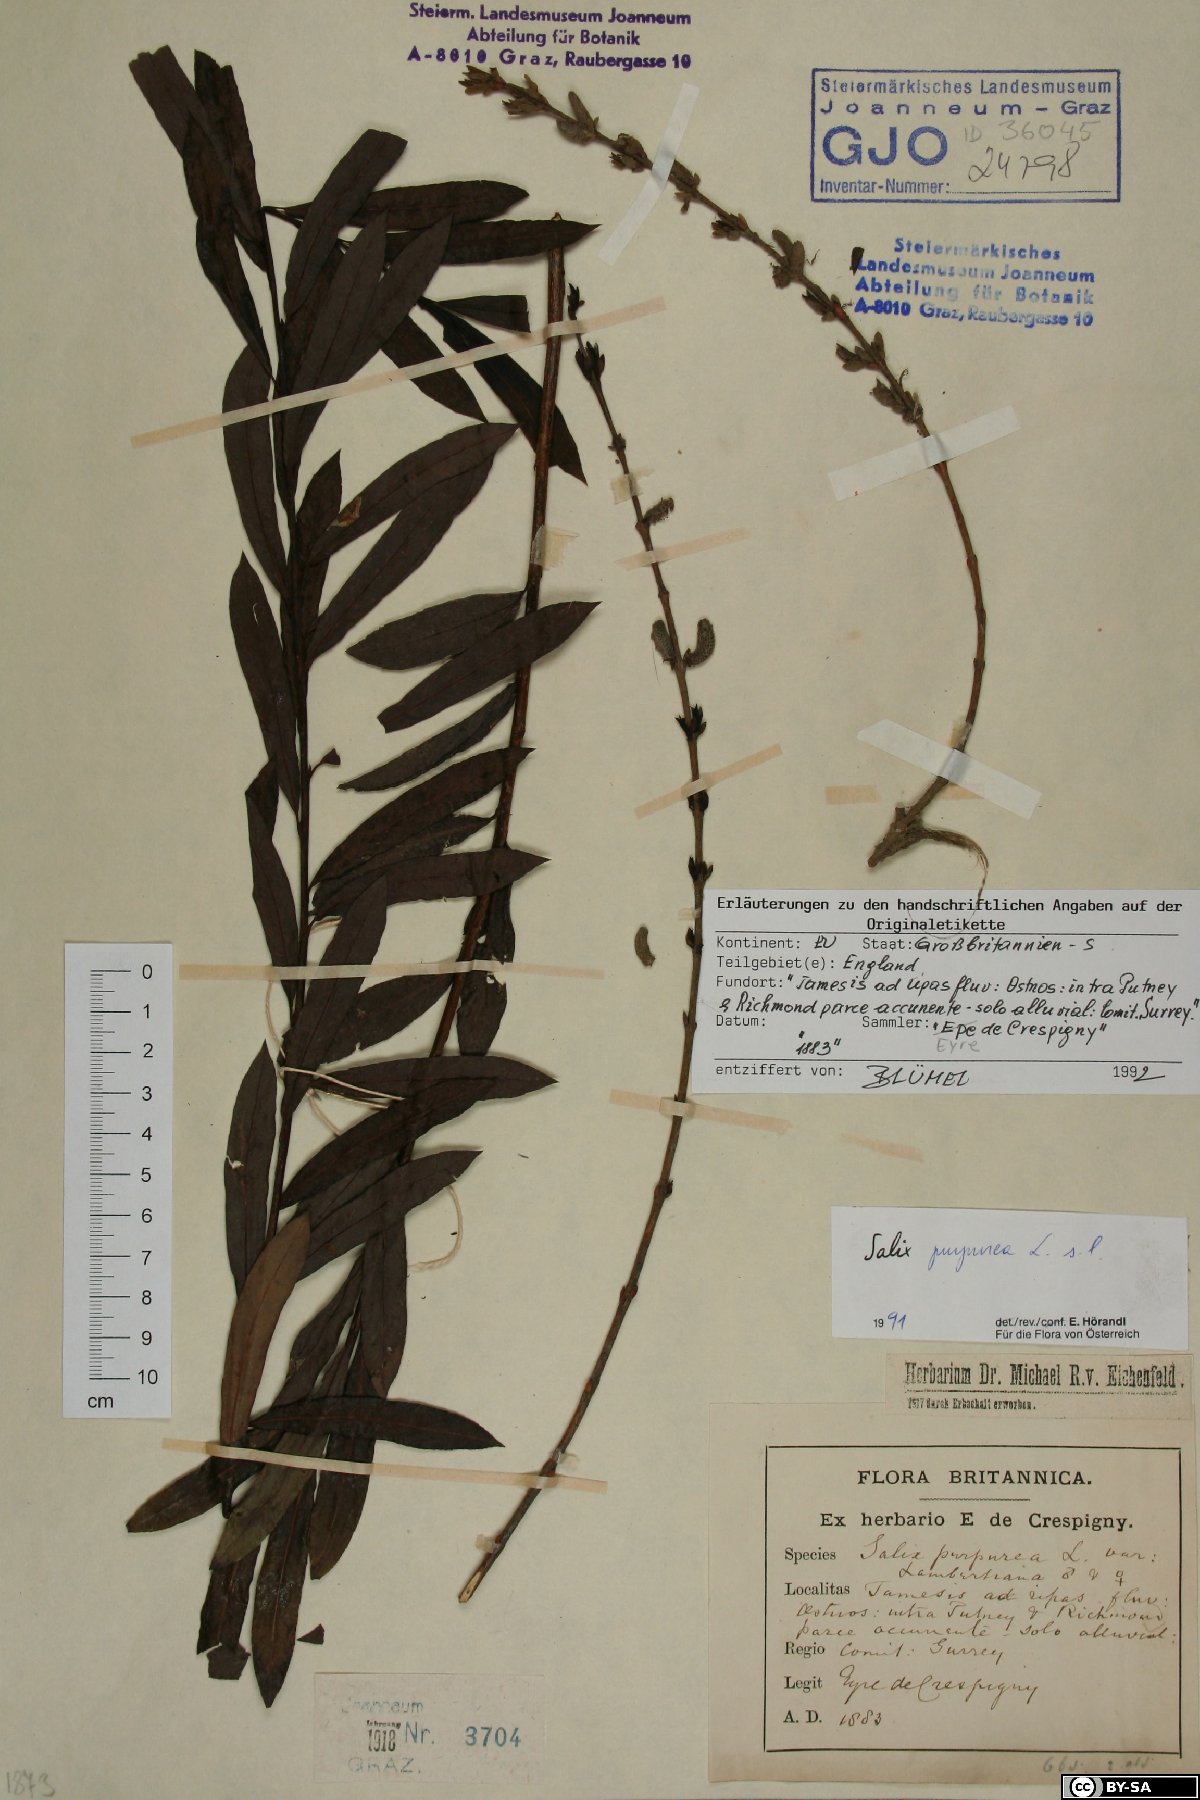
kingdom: Plantae
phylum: Tracheophyta
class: Magnoliopsida
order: Malpighiales
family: Salicaceae
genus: Salix
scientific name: Salix purpurea
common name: Purple willow
